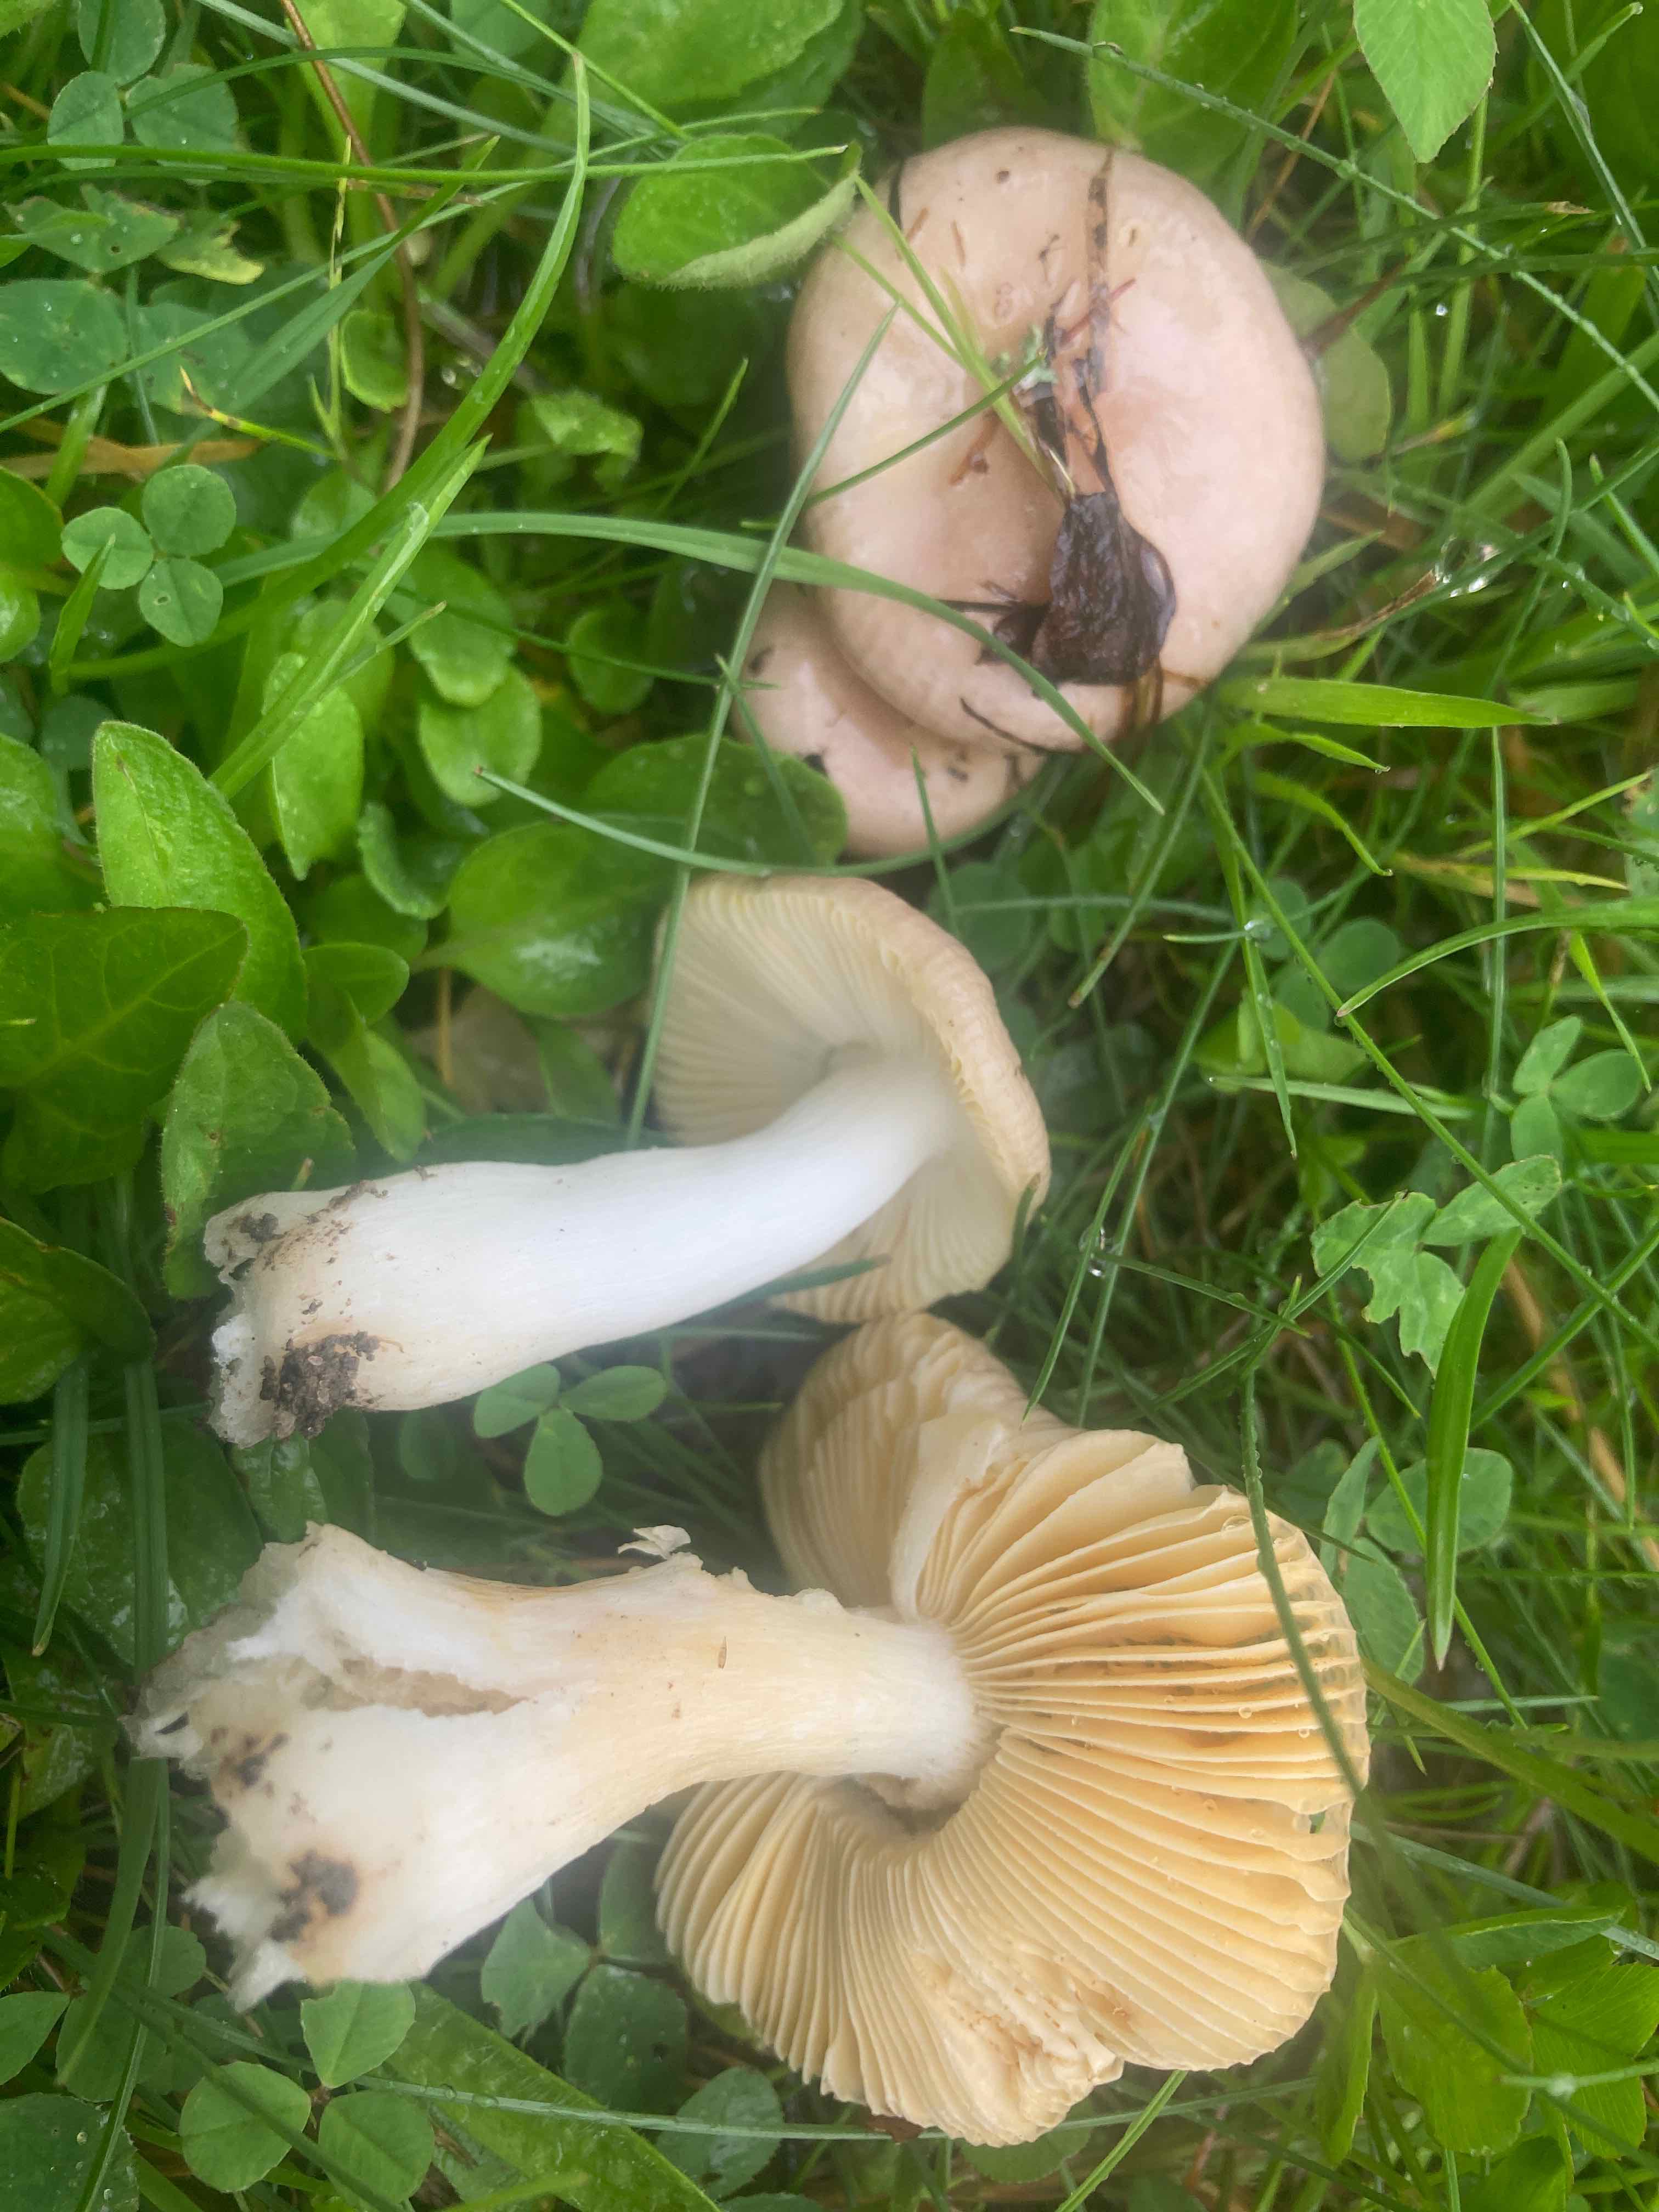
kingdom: Fungi
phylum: Basidiomycota
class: Agaricomycetes
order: Russulales
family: Russulaceae
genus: Russula
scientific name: Russula odorata
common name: duft-skørhat
